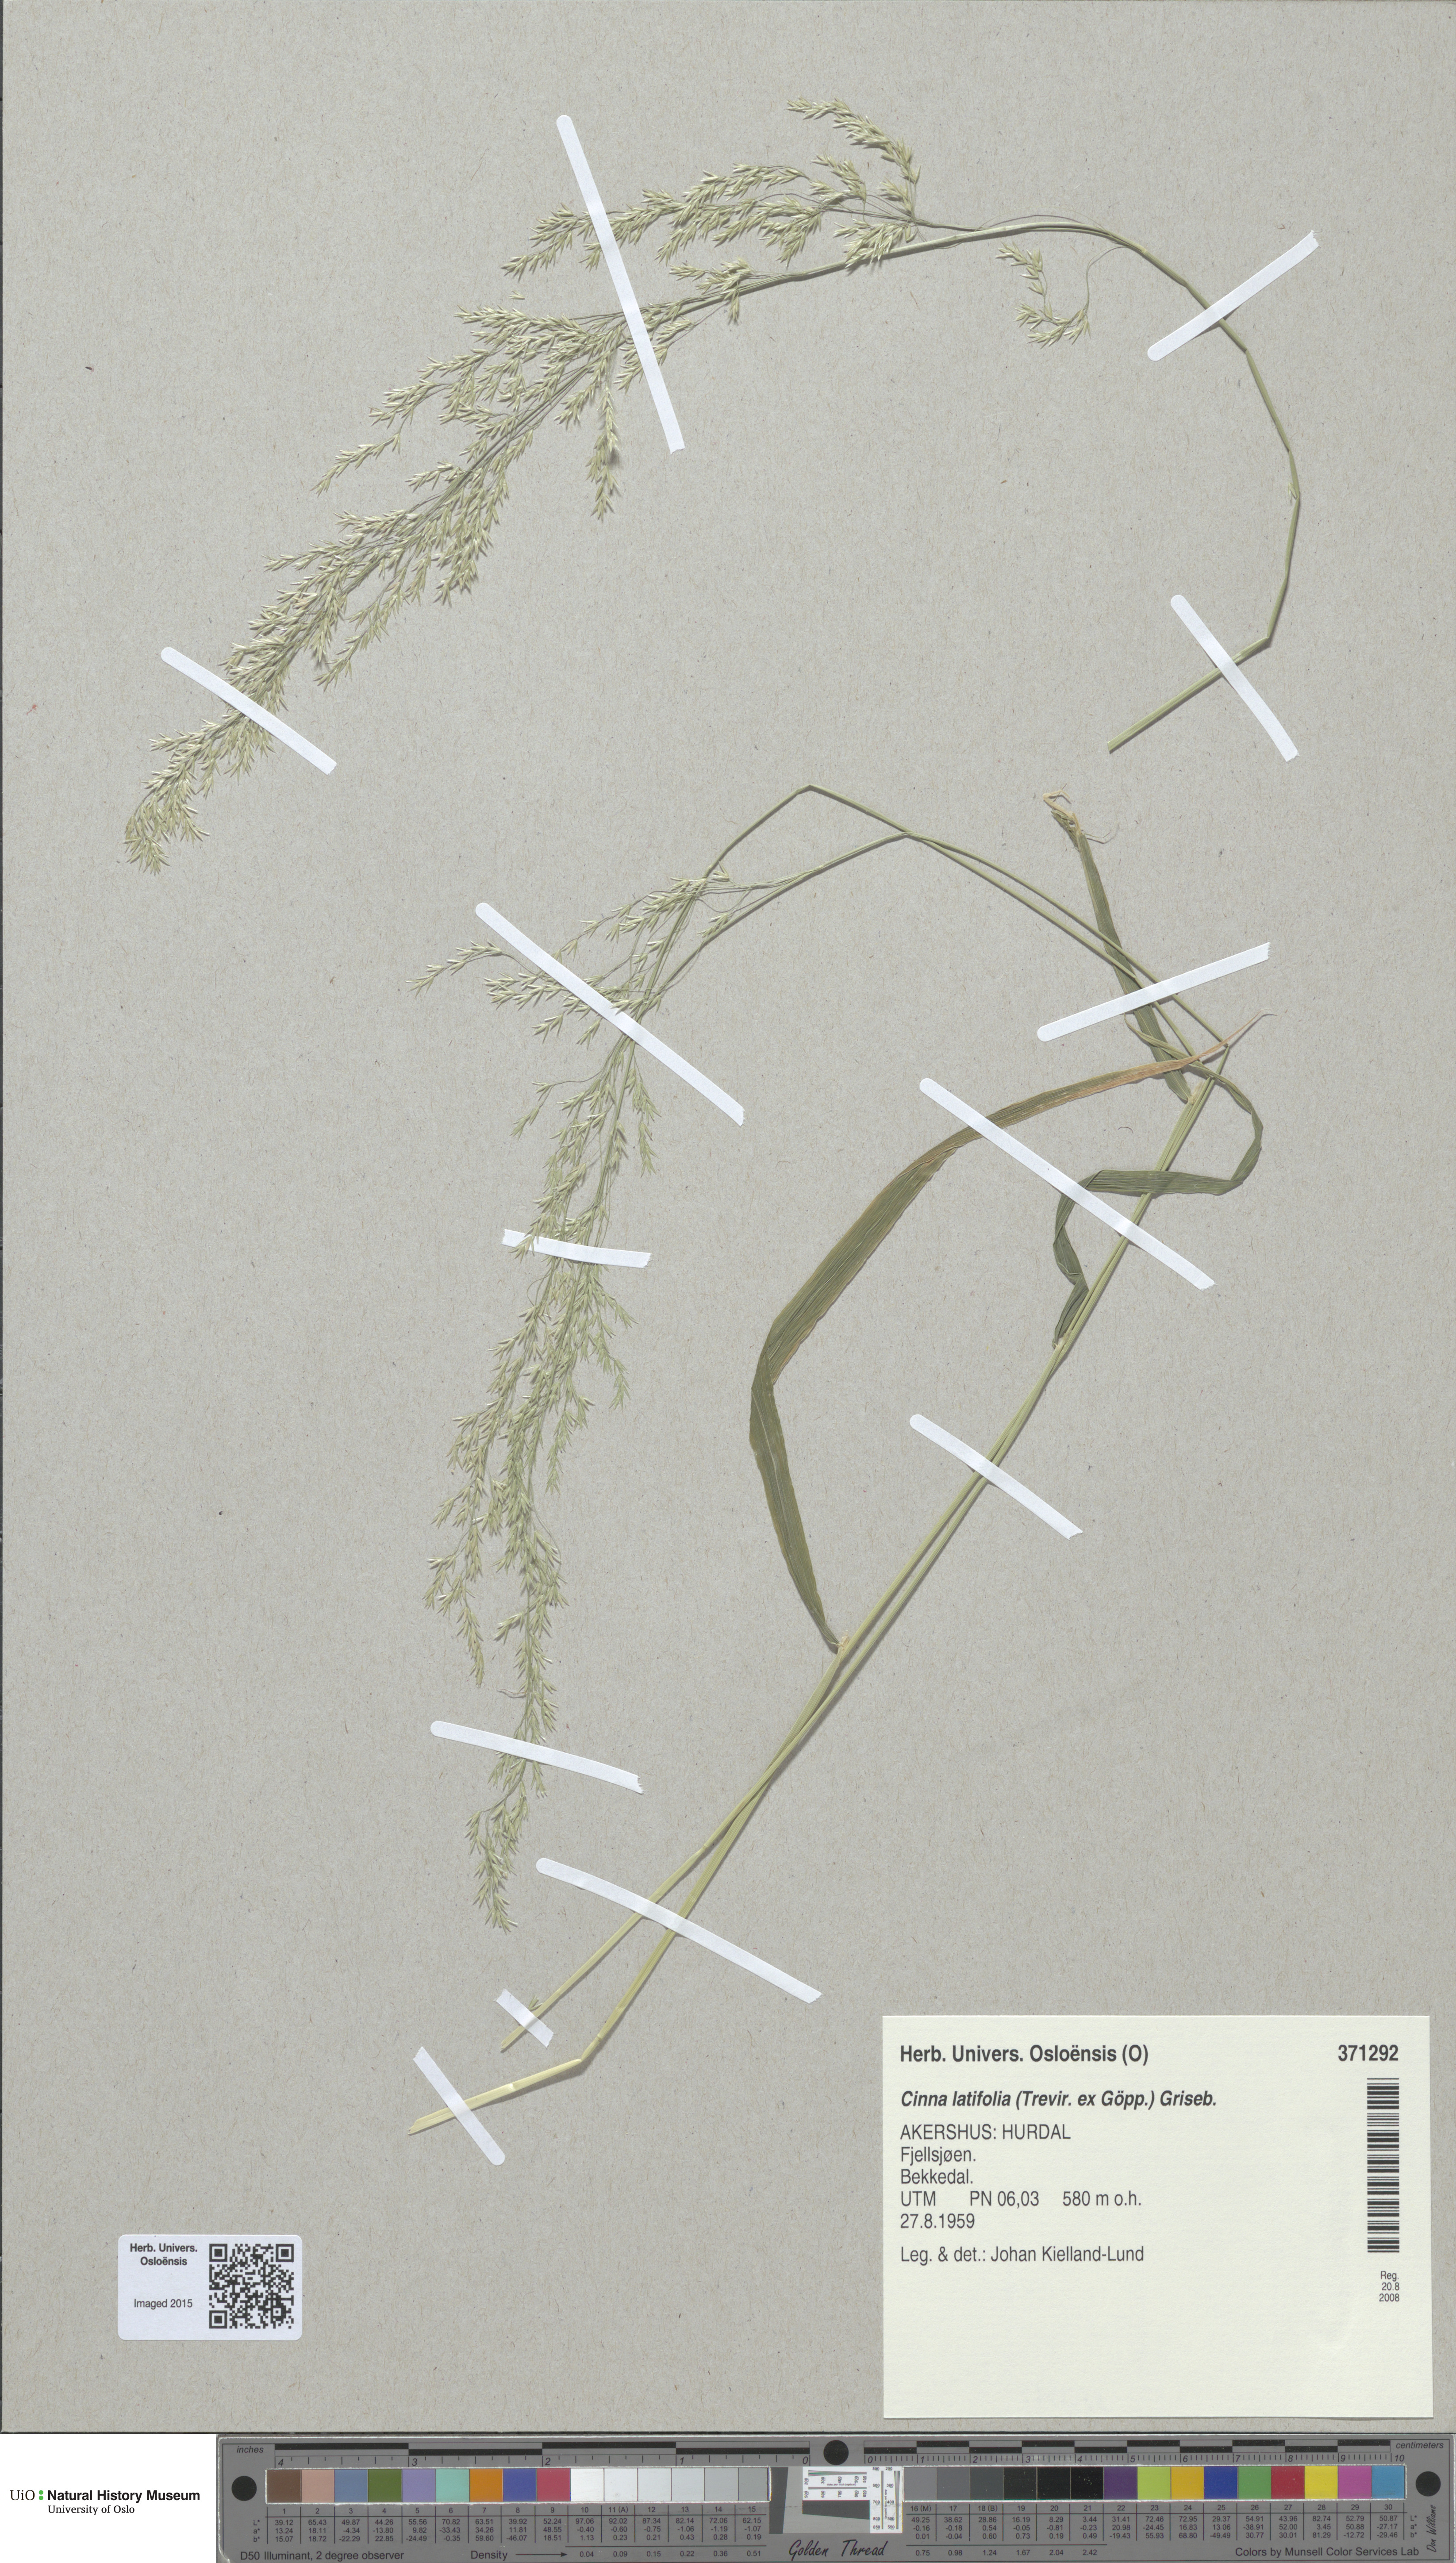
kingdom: Plantae
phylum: Tracheophyta
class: Liliopsida
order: Poales
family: Poaceae
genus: Cinna
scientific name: Cinna latifolia
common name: Drooping woodreed
